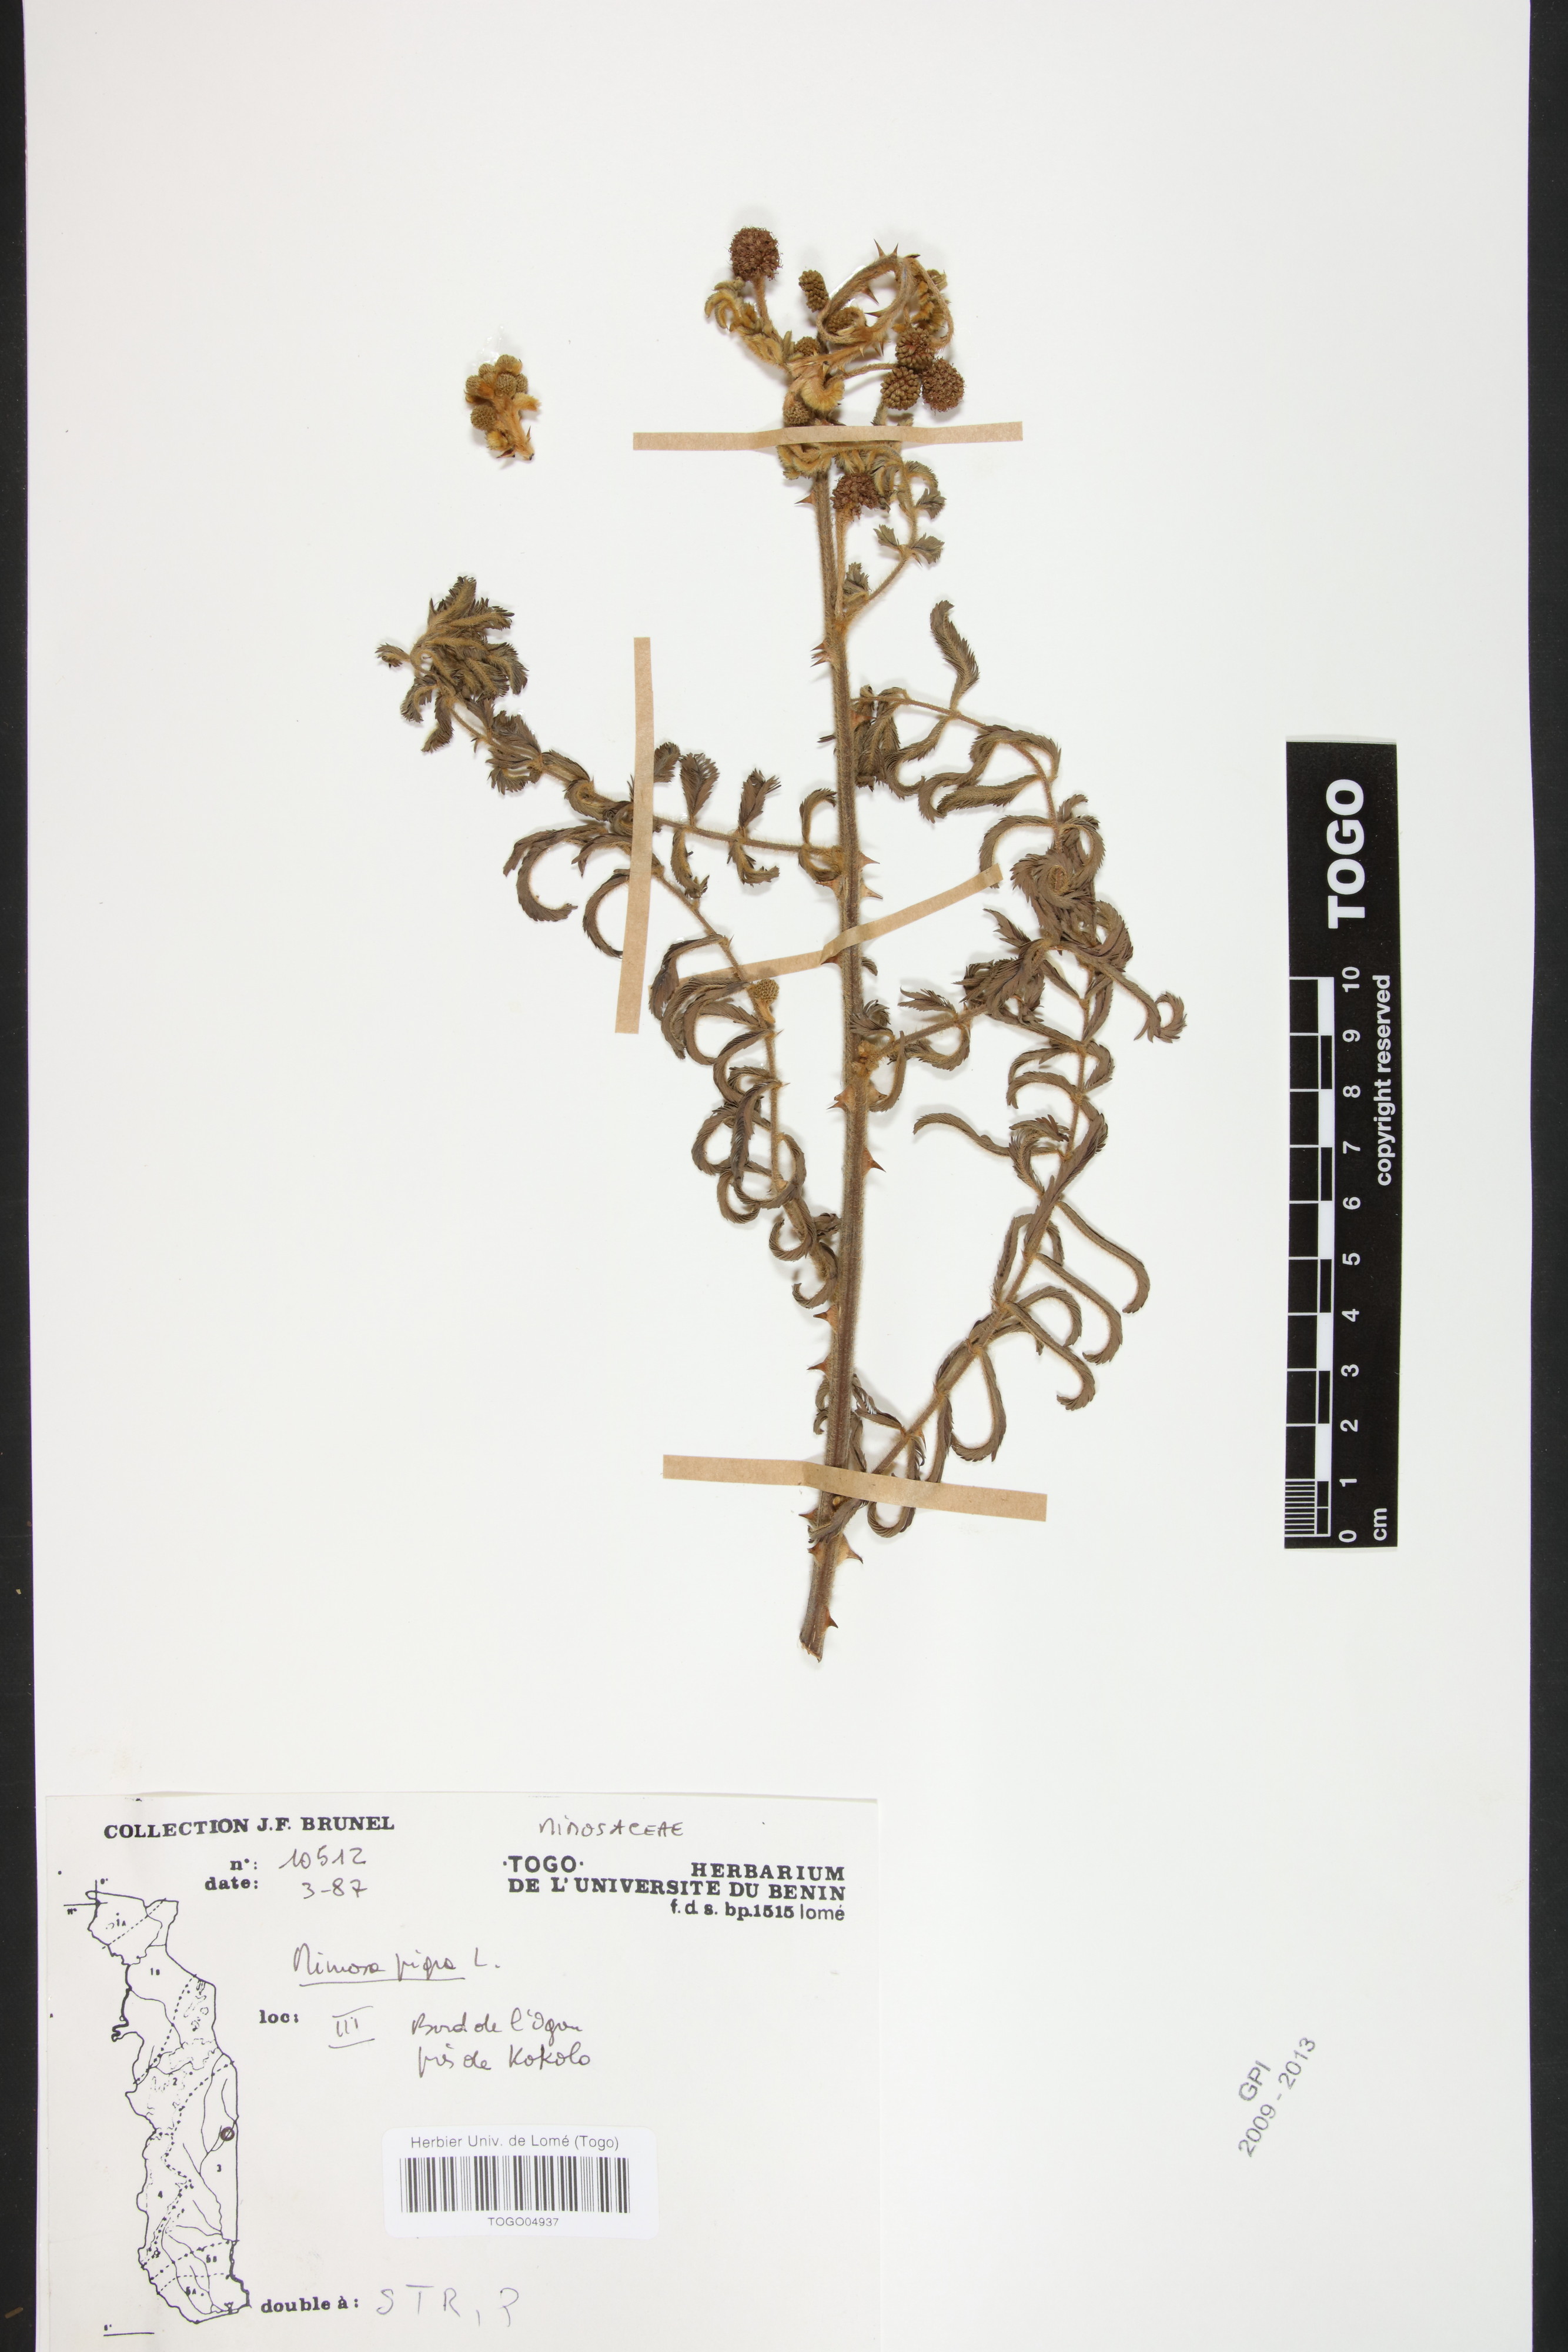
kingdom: Plantae
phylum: Tracheophyta
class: Magnoliopsida
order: Fabales
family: Fabaceae
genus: Mimosa
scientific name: Mimosa pigra
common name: Black mimosa
